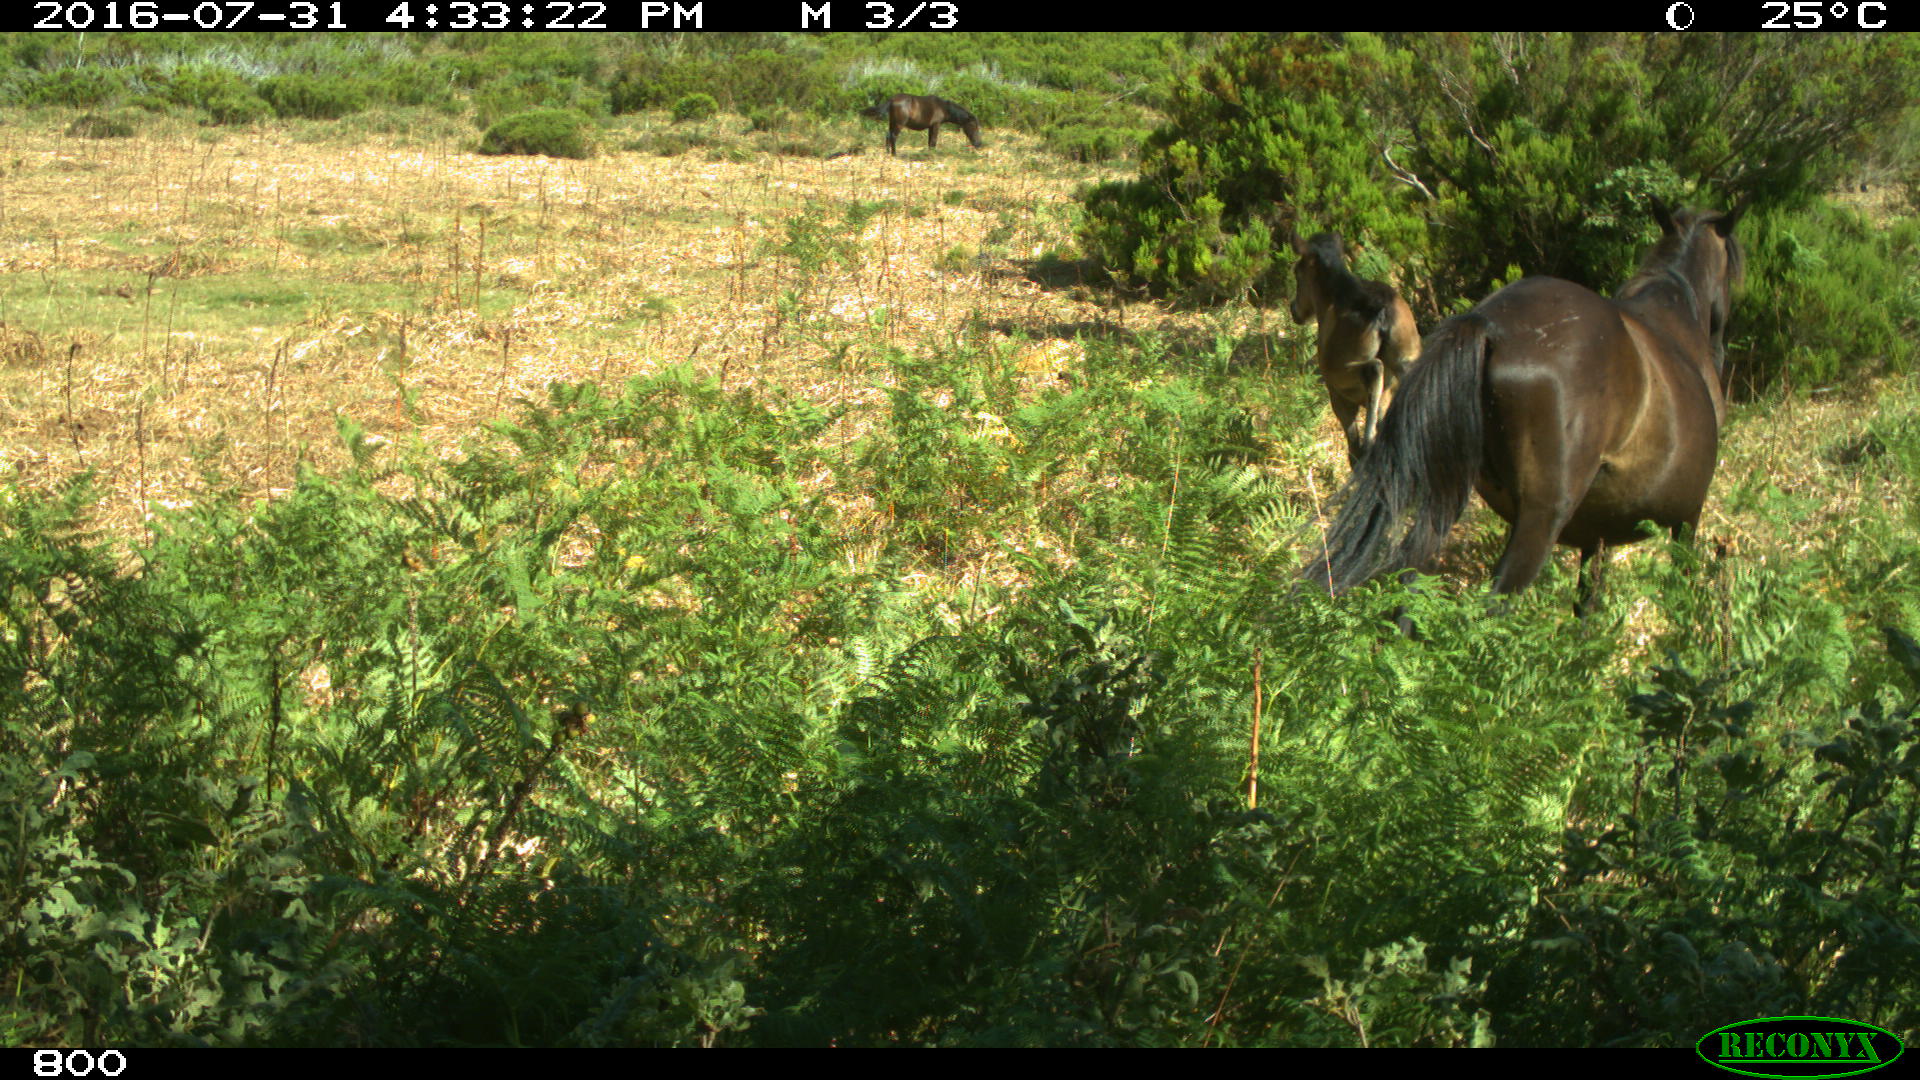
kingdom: Animalia
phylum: Chordata
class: Mammalia
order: Perissodactyla
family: Equidae
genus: Equus
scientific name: Equus caballus
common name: Horse
